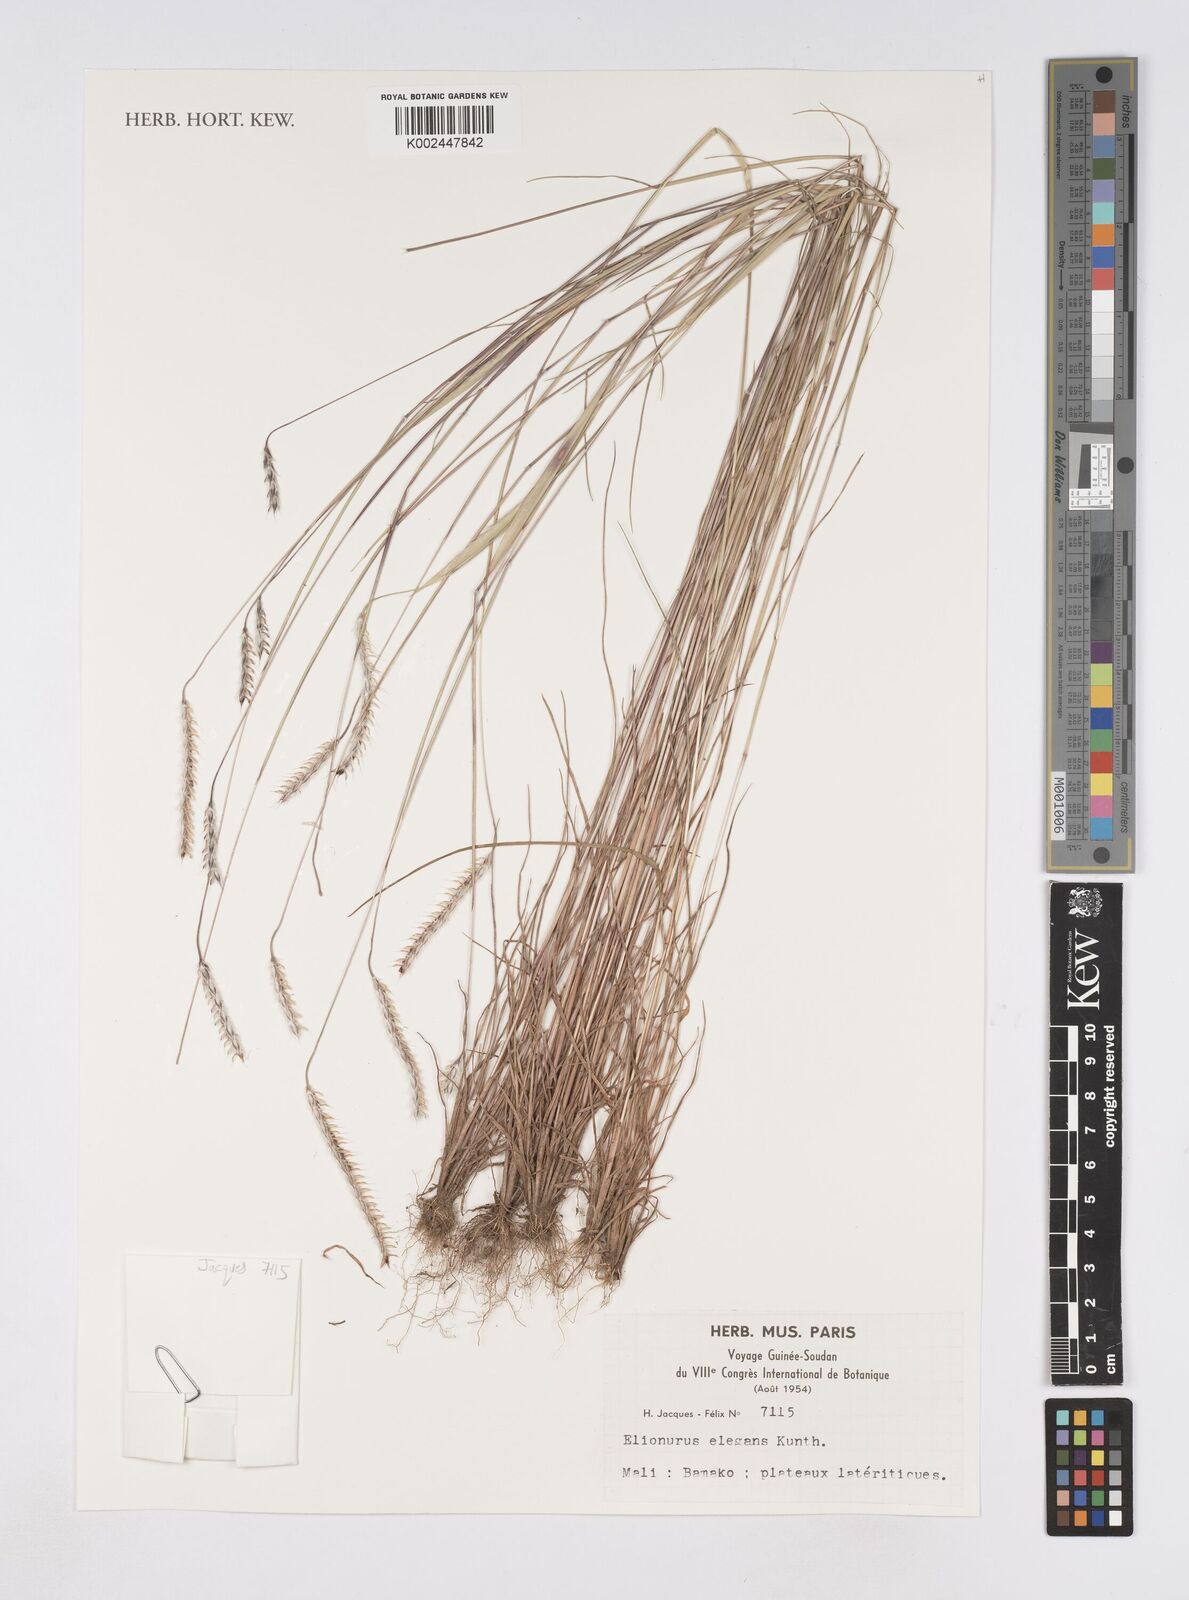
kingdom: Plantae
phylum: Tracheophyta
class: Liliopsida
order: Poales
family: Poaceae
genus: Elionurus
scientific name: Elionurus elegans
